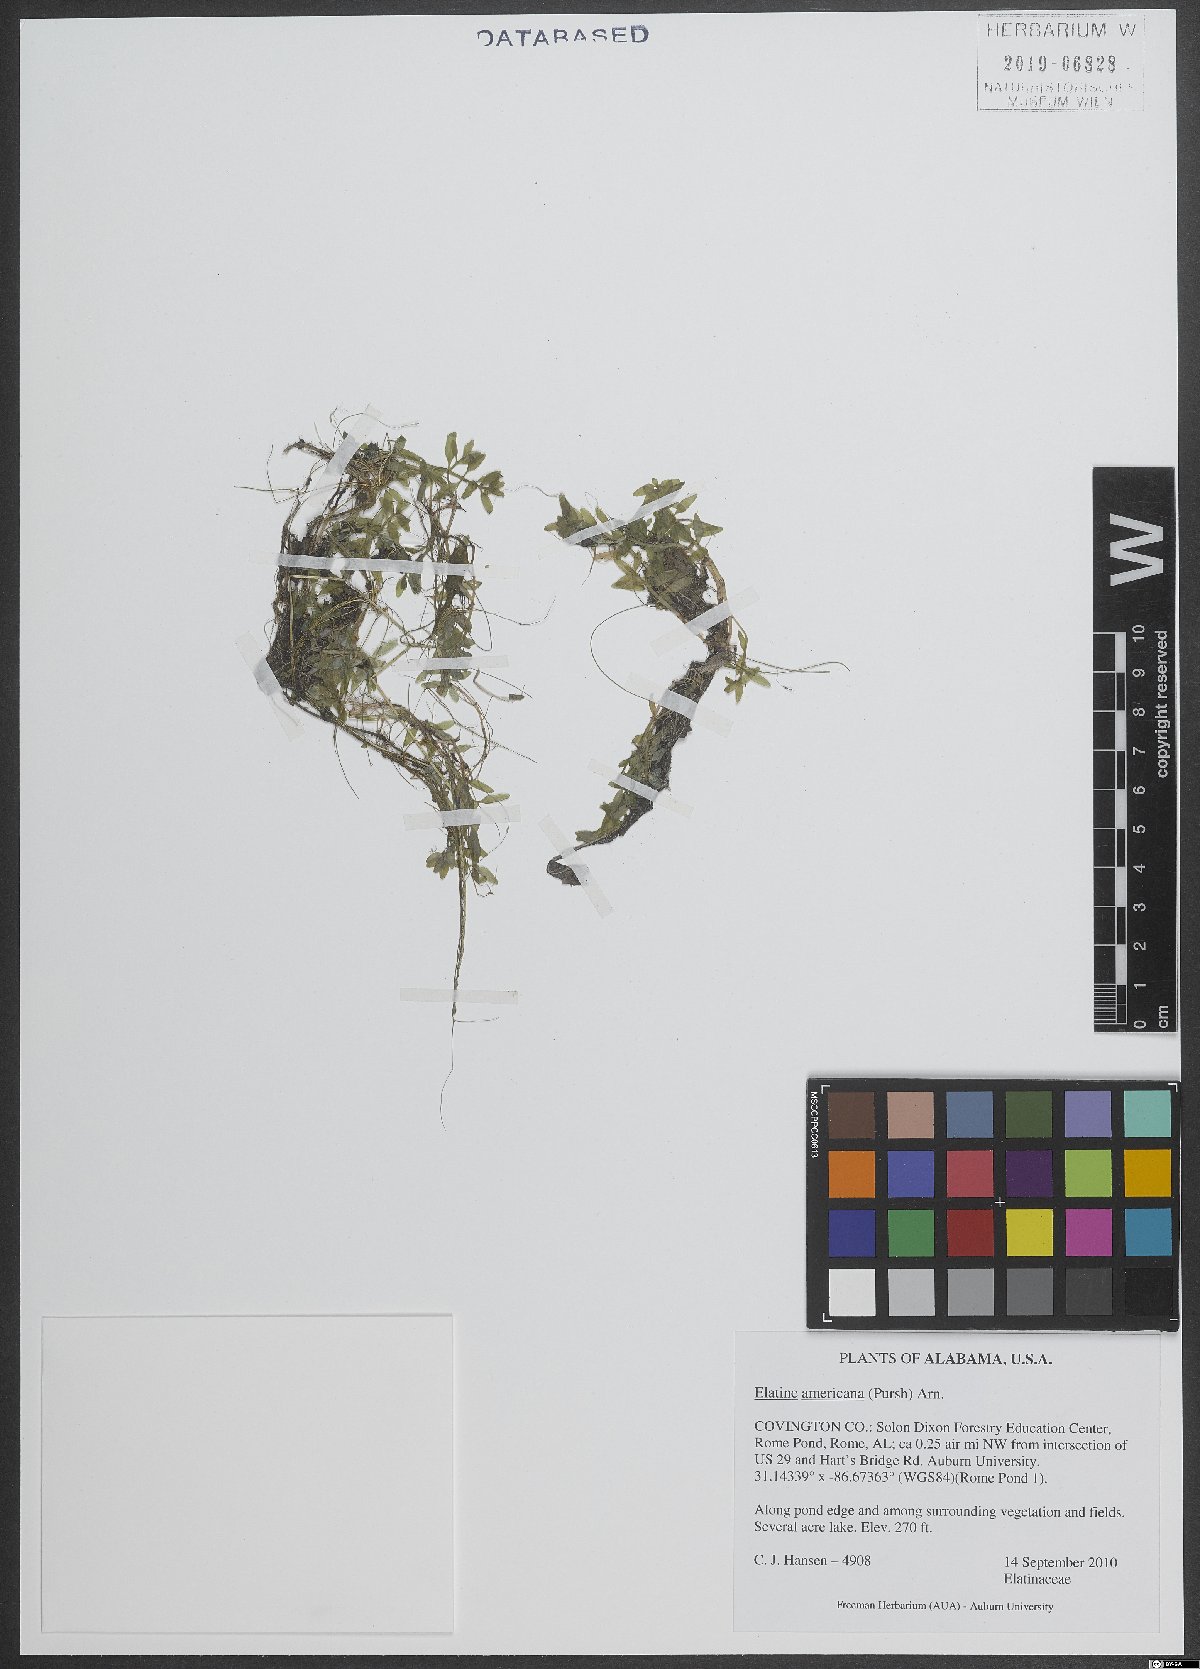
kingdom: Plantae
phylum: Tracheophyta
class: Magnoliopsida
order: Malpighiales
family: Elatinaceae
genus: Elatine
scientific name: Elatine triandra
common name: Three-stamened waterwort
